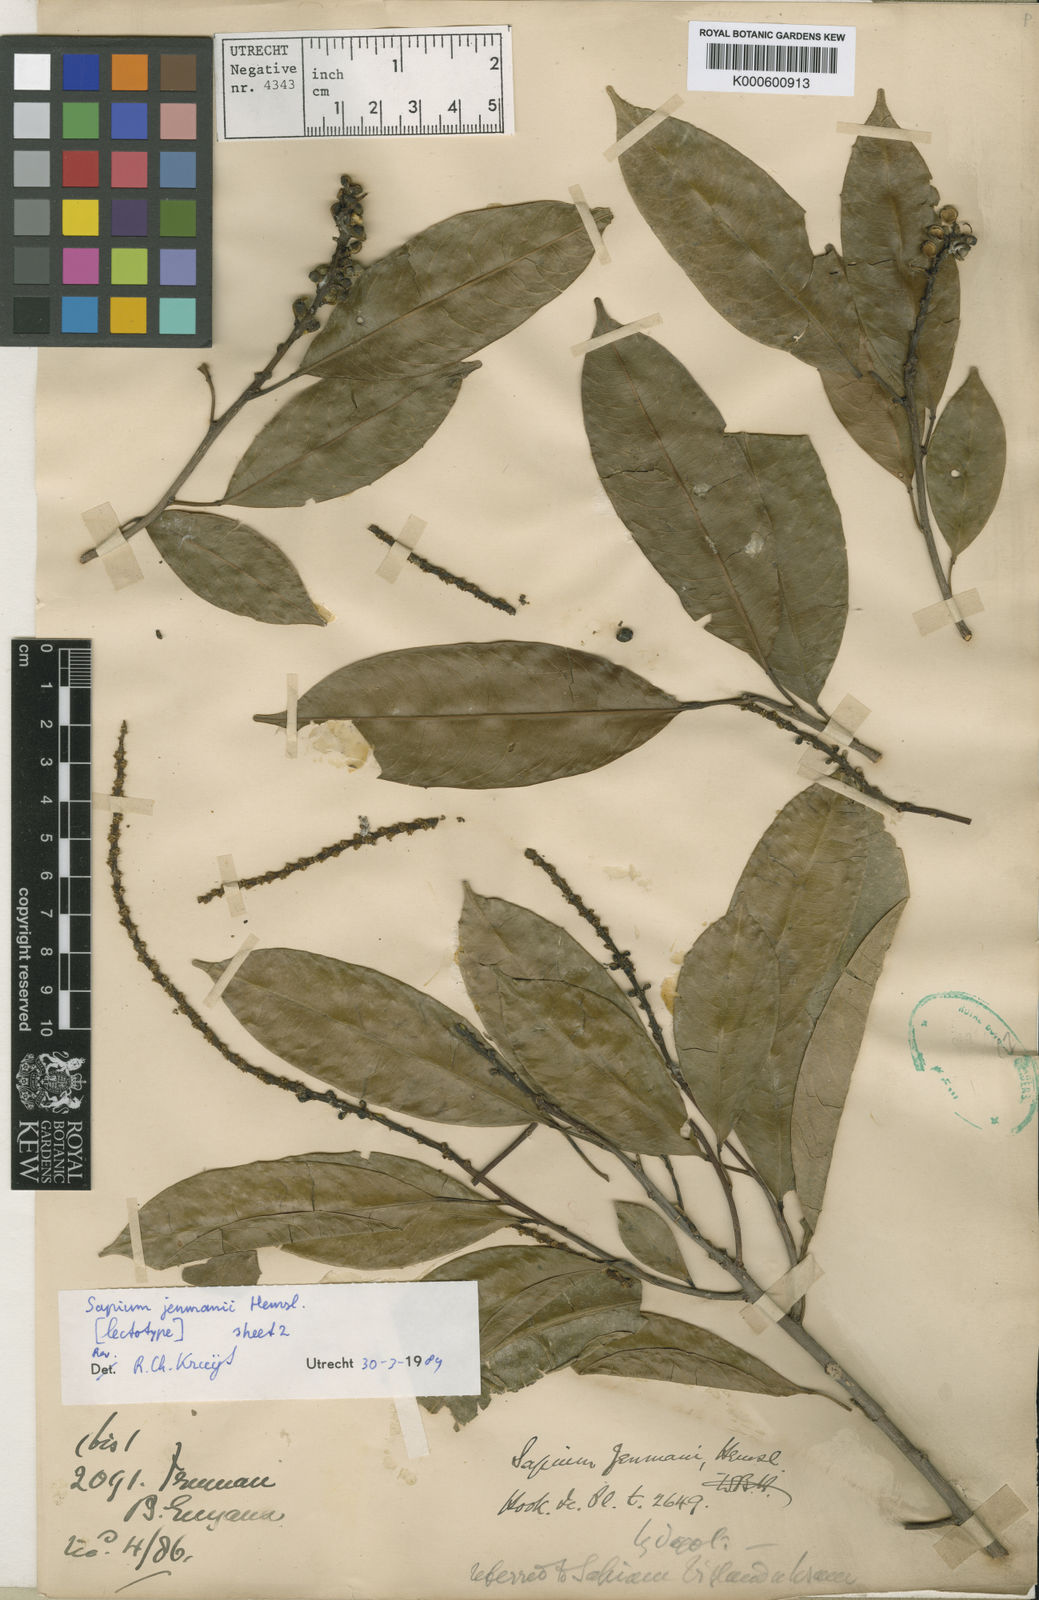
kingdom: Plantae
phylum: Tracheophyta
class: Magnoliopsida
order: Malpighiales
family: Euphorbiaceae
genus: Sapium
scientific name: Sapium jenmannii
